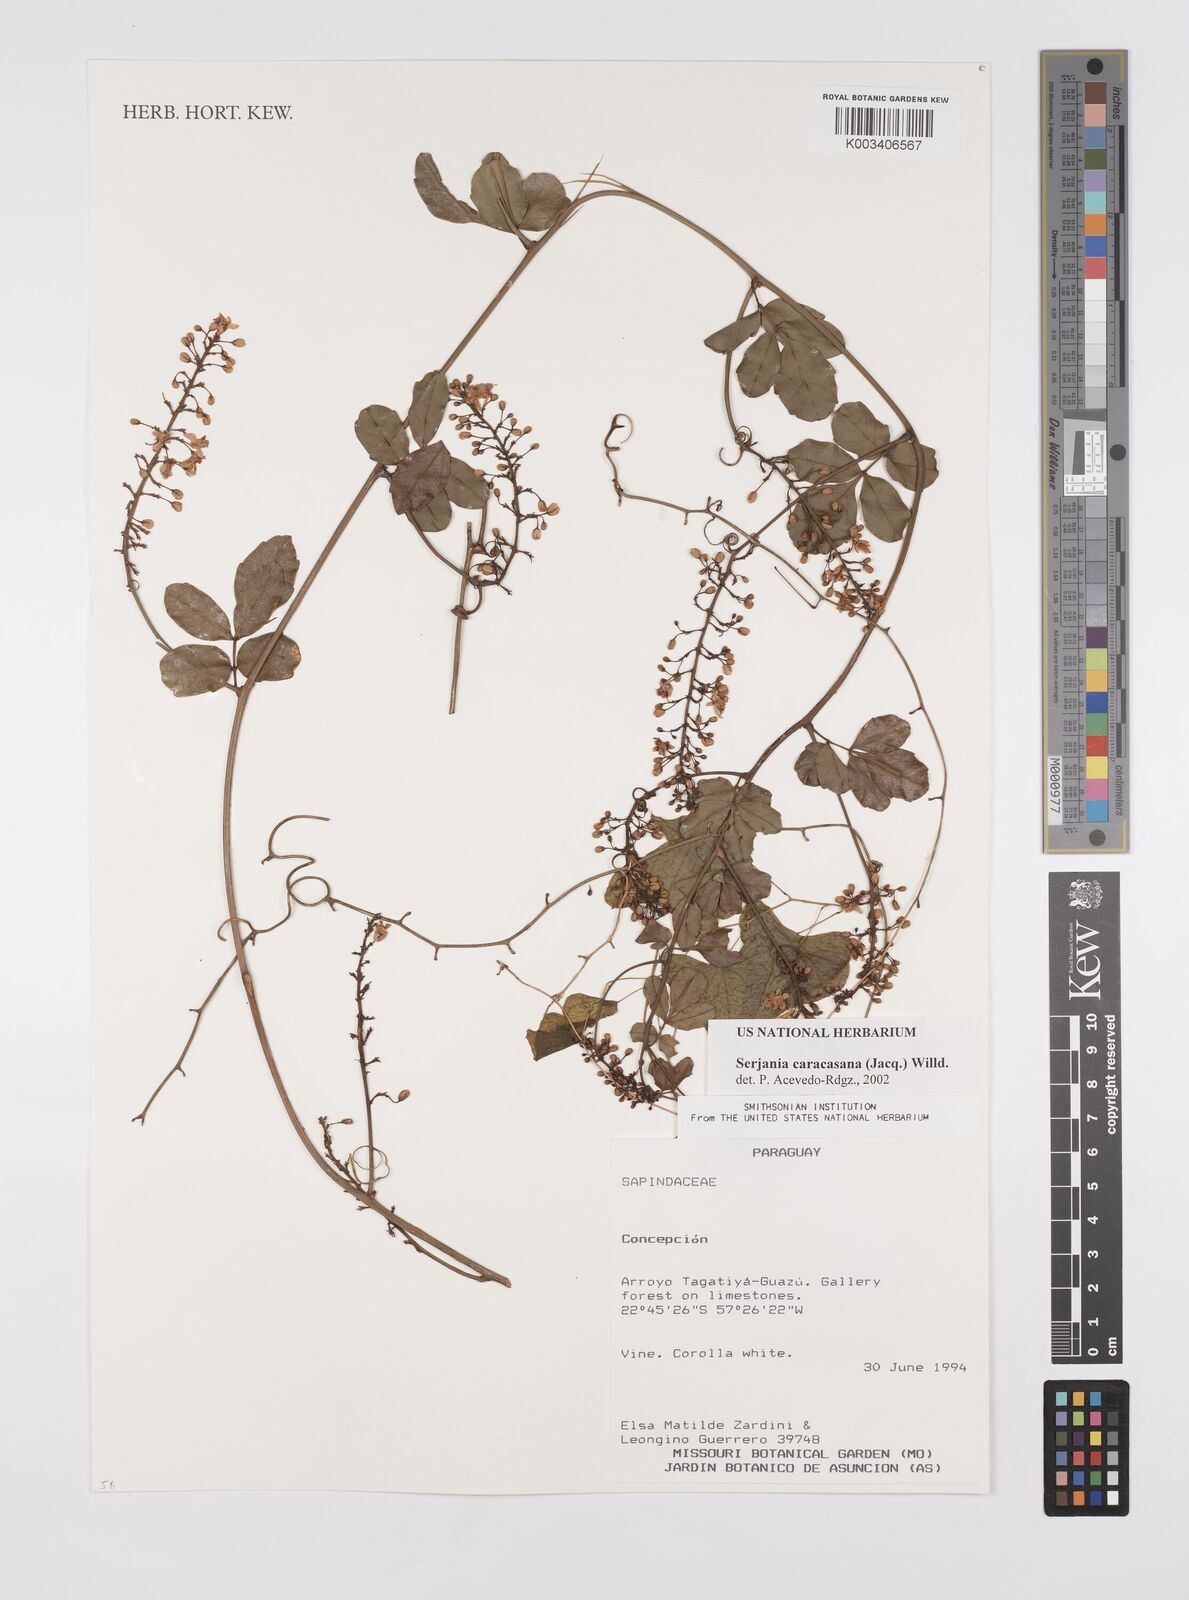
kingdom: Plantae
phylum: Tracheophyta
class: Magnoliopsida
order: Sapindales
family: Sapindaceae
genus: Serjania
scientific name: Serjania caracasana
